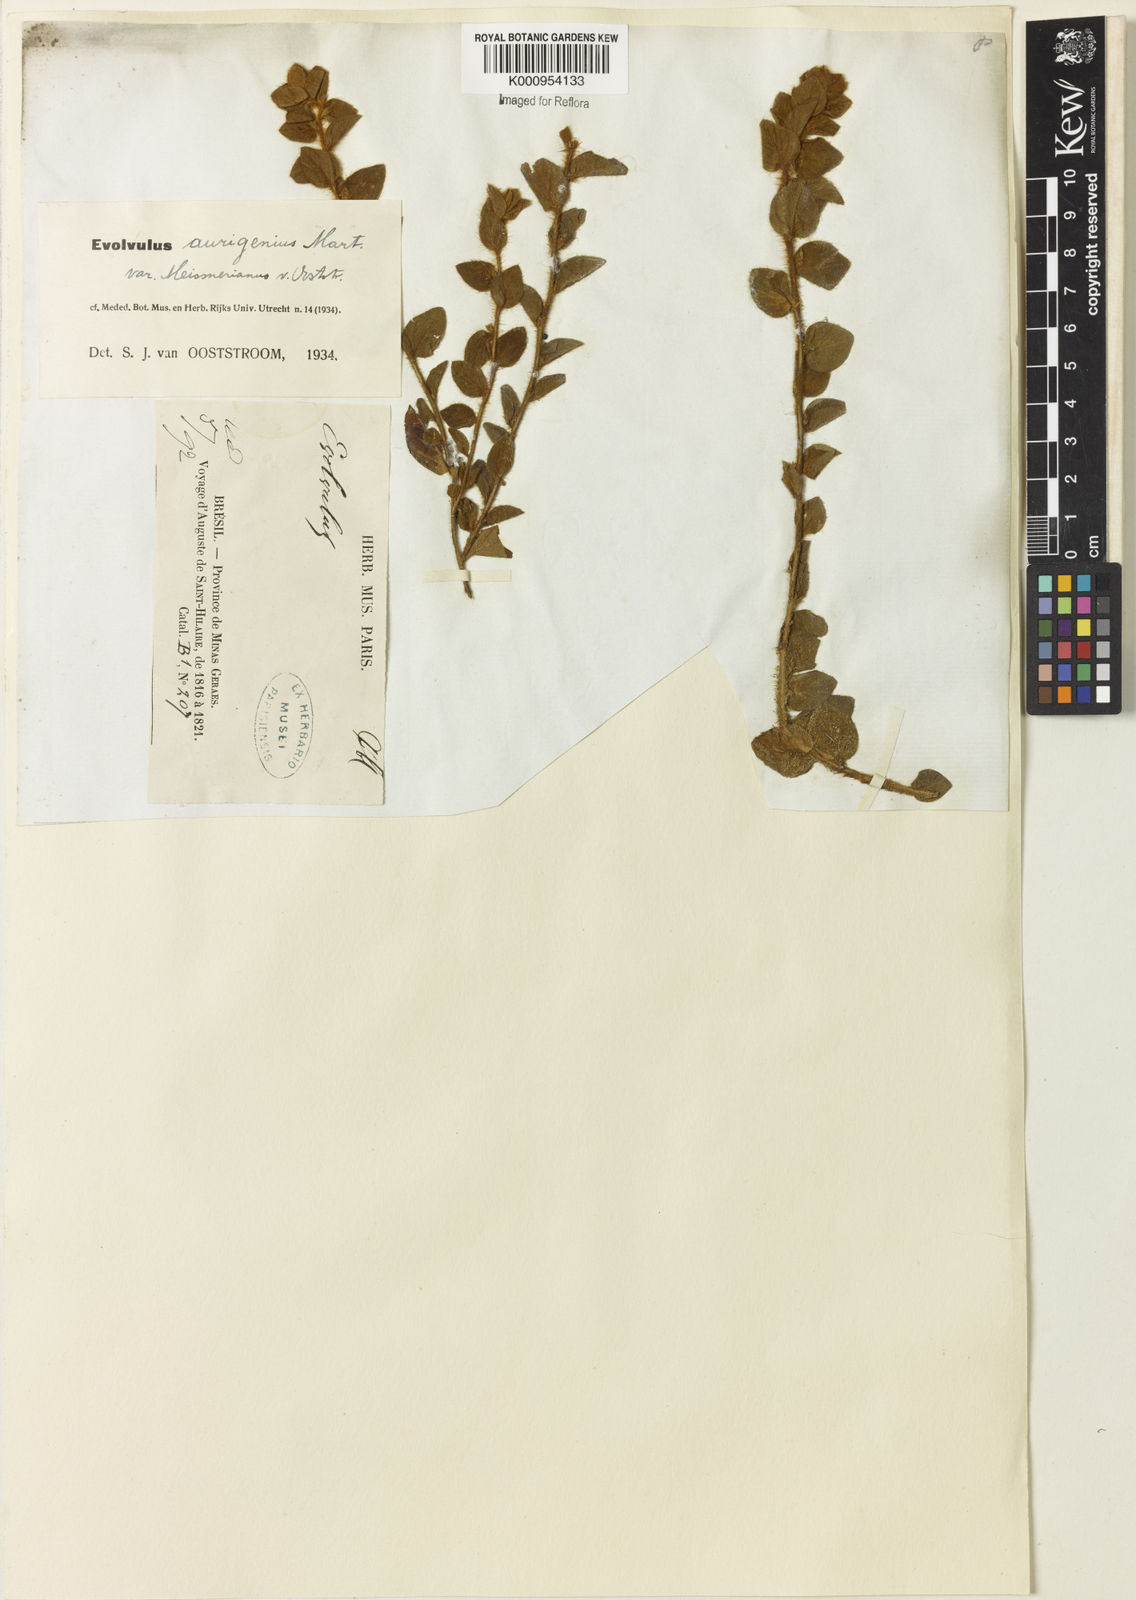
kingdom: Plantae
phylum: Tracheophyta
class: Magnoliopsida
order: Solanales
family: Convolvulaceae
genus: Evolvulus
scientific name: Evolvulus aurigenius
